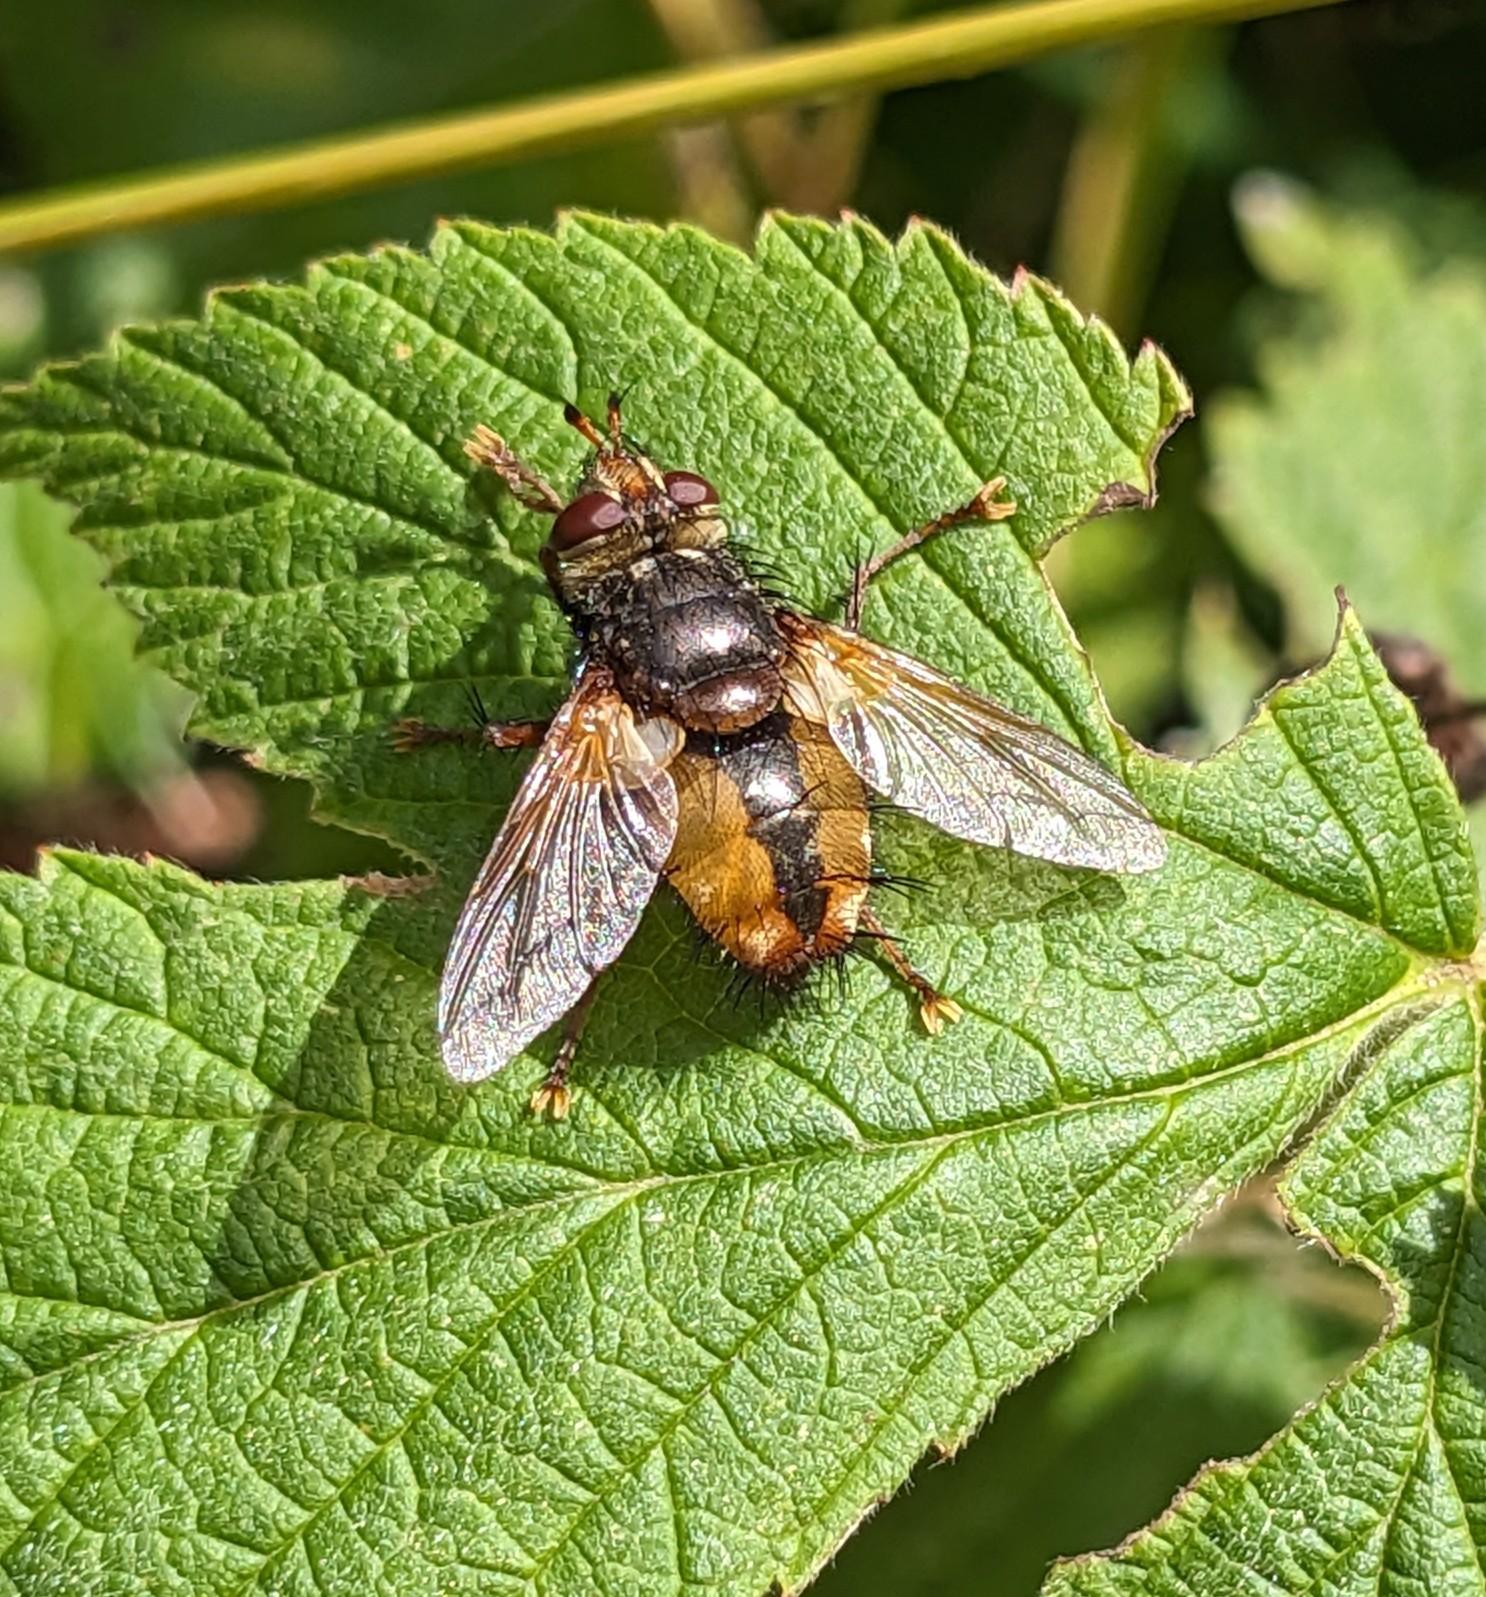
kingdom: Animalia
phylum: Arthropoda
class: Insecta
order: Diptera
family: Tachinidae
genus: Tachina
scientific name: Tachina fera
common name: Mellemfluen oskar
